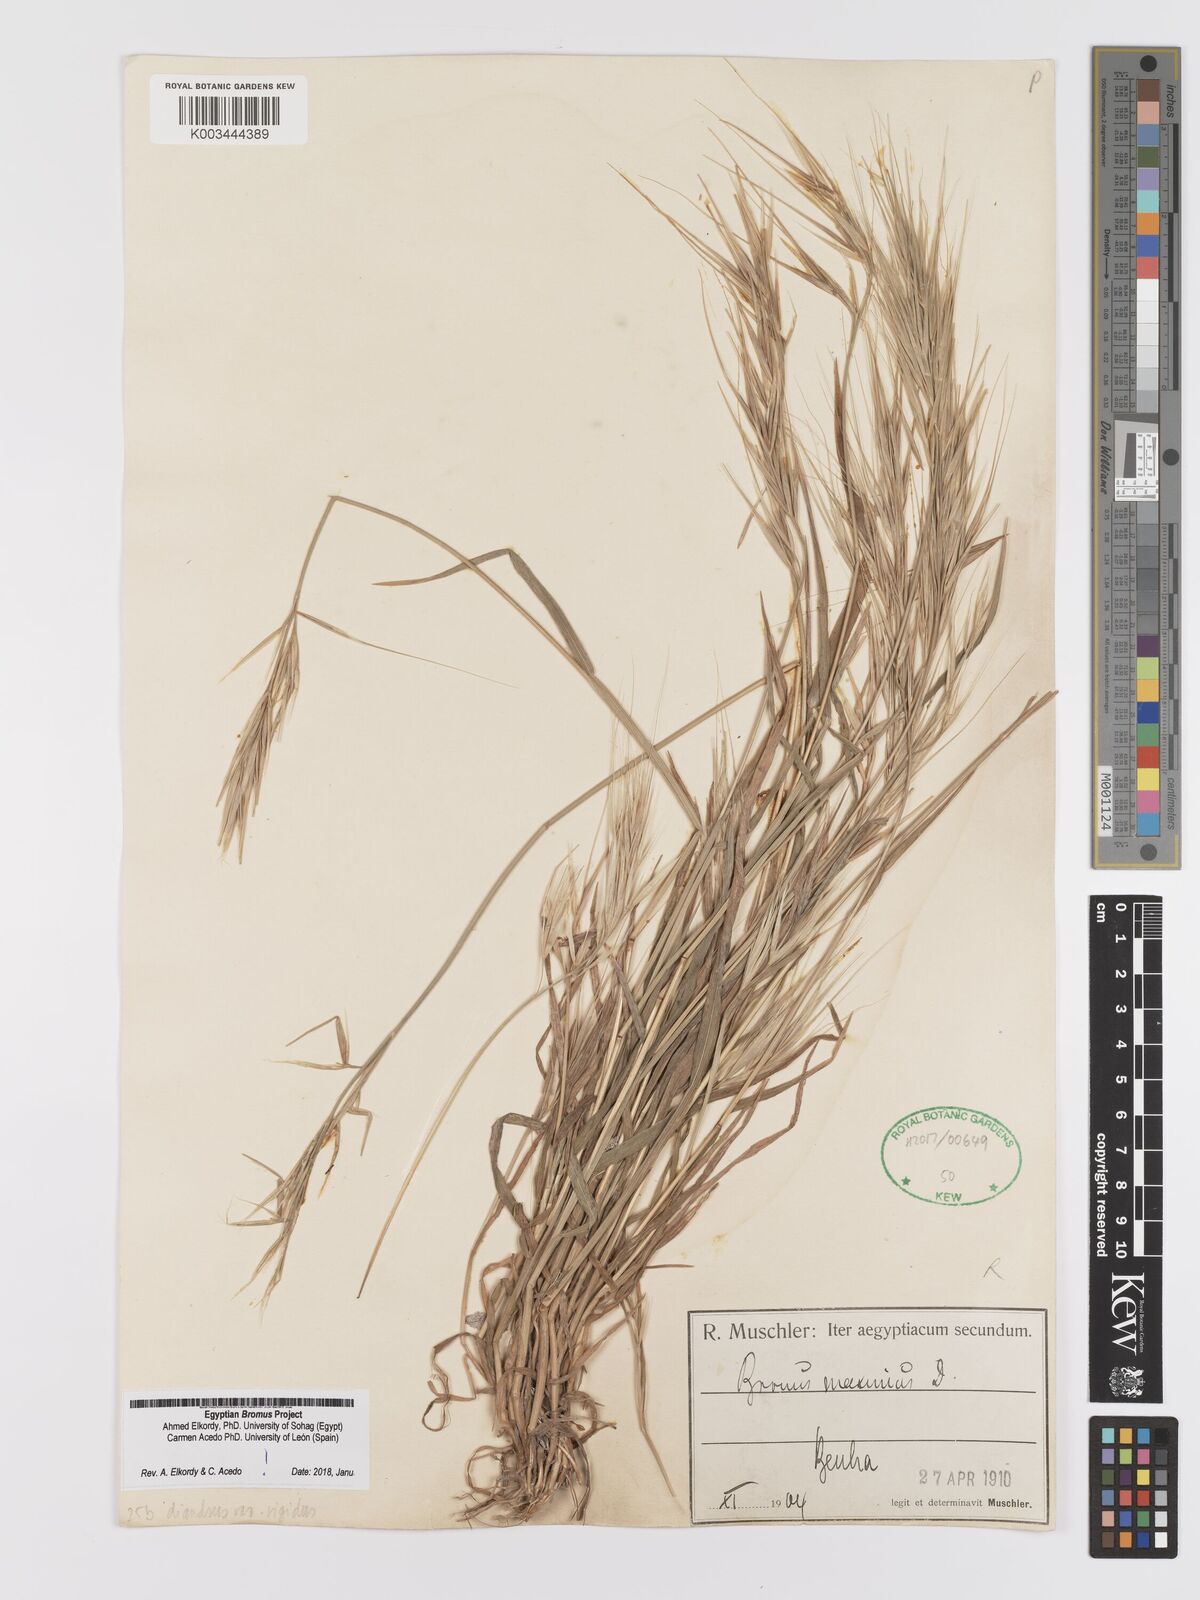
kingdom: Plantae
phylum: Tracheophyta
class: Liliopsida
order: Poales
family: Poaceae
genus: Bromus
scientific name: Bromus
